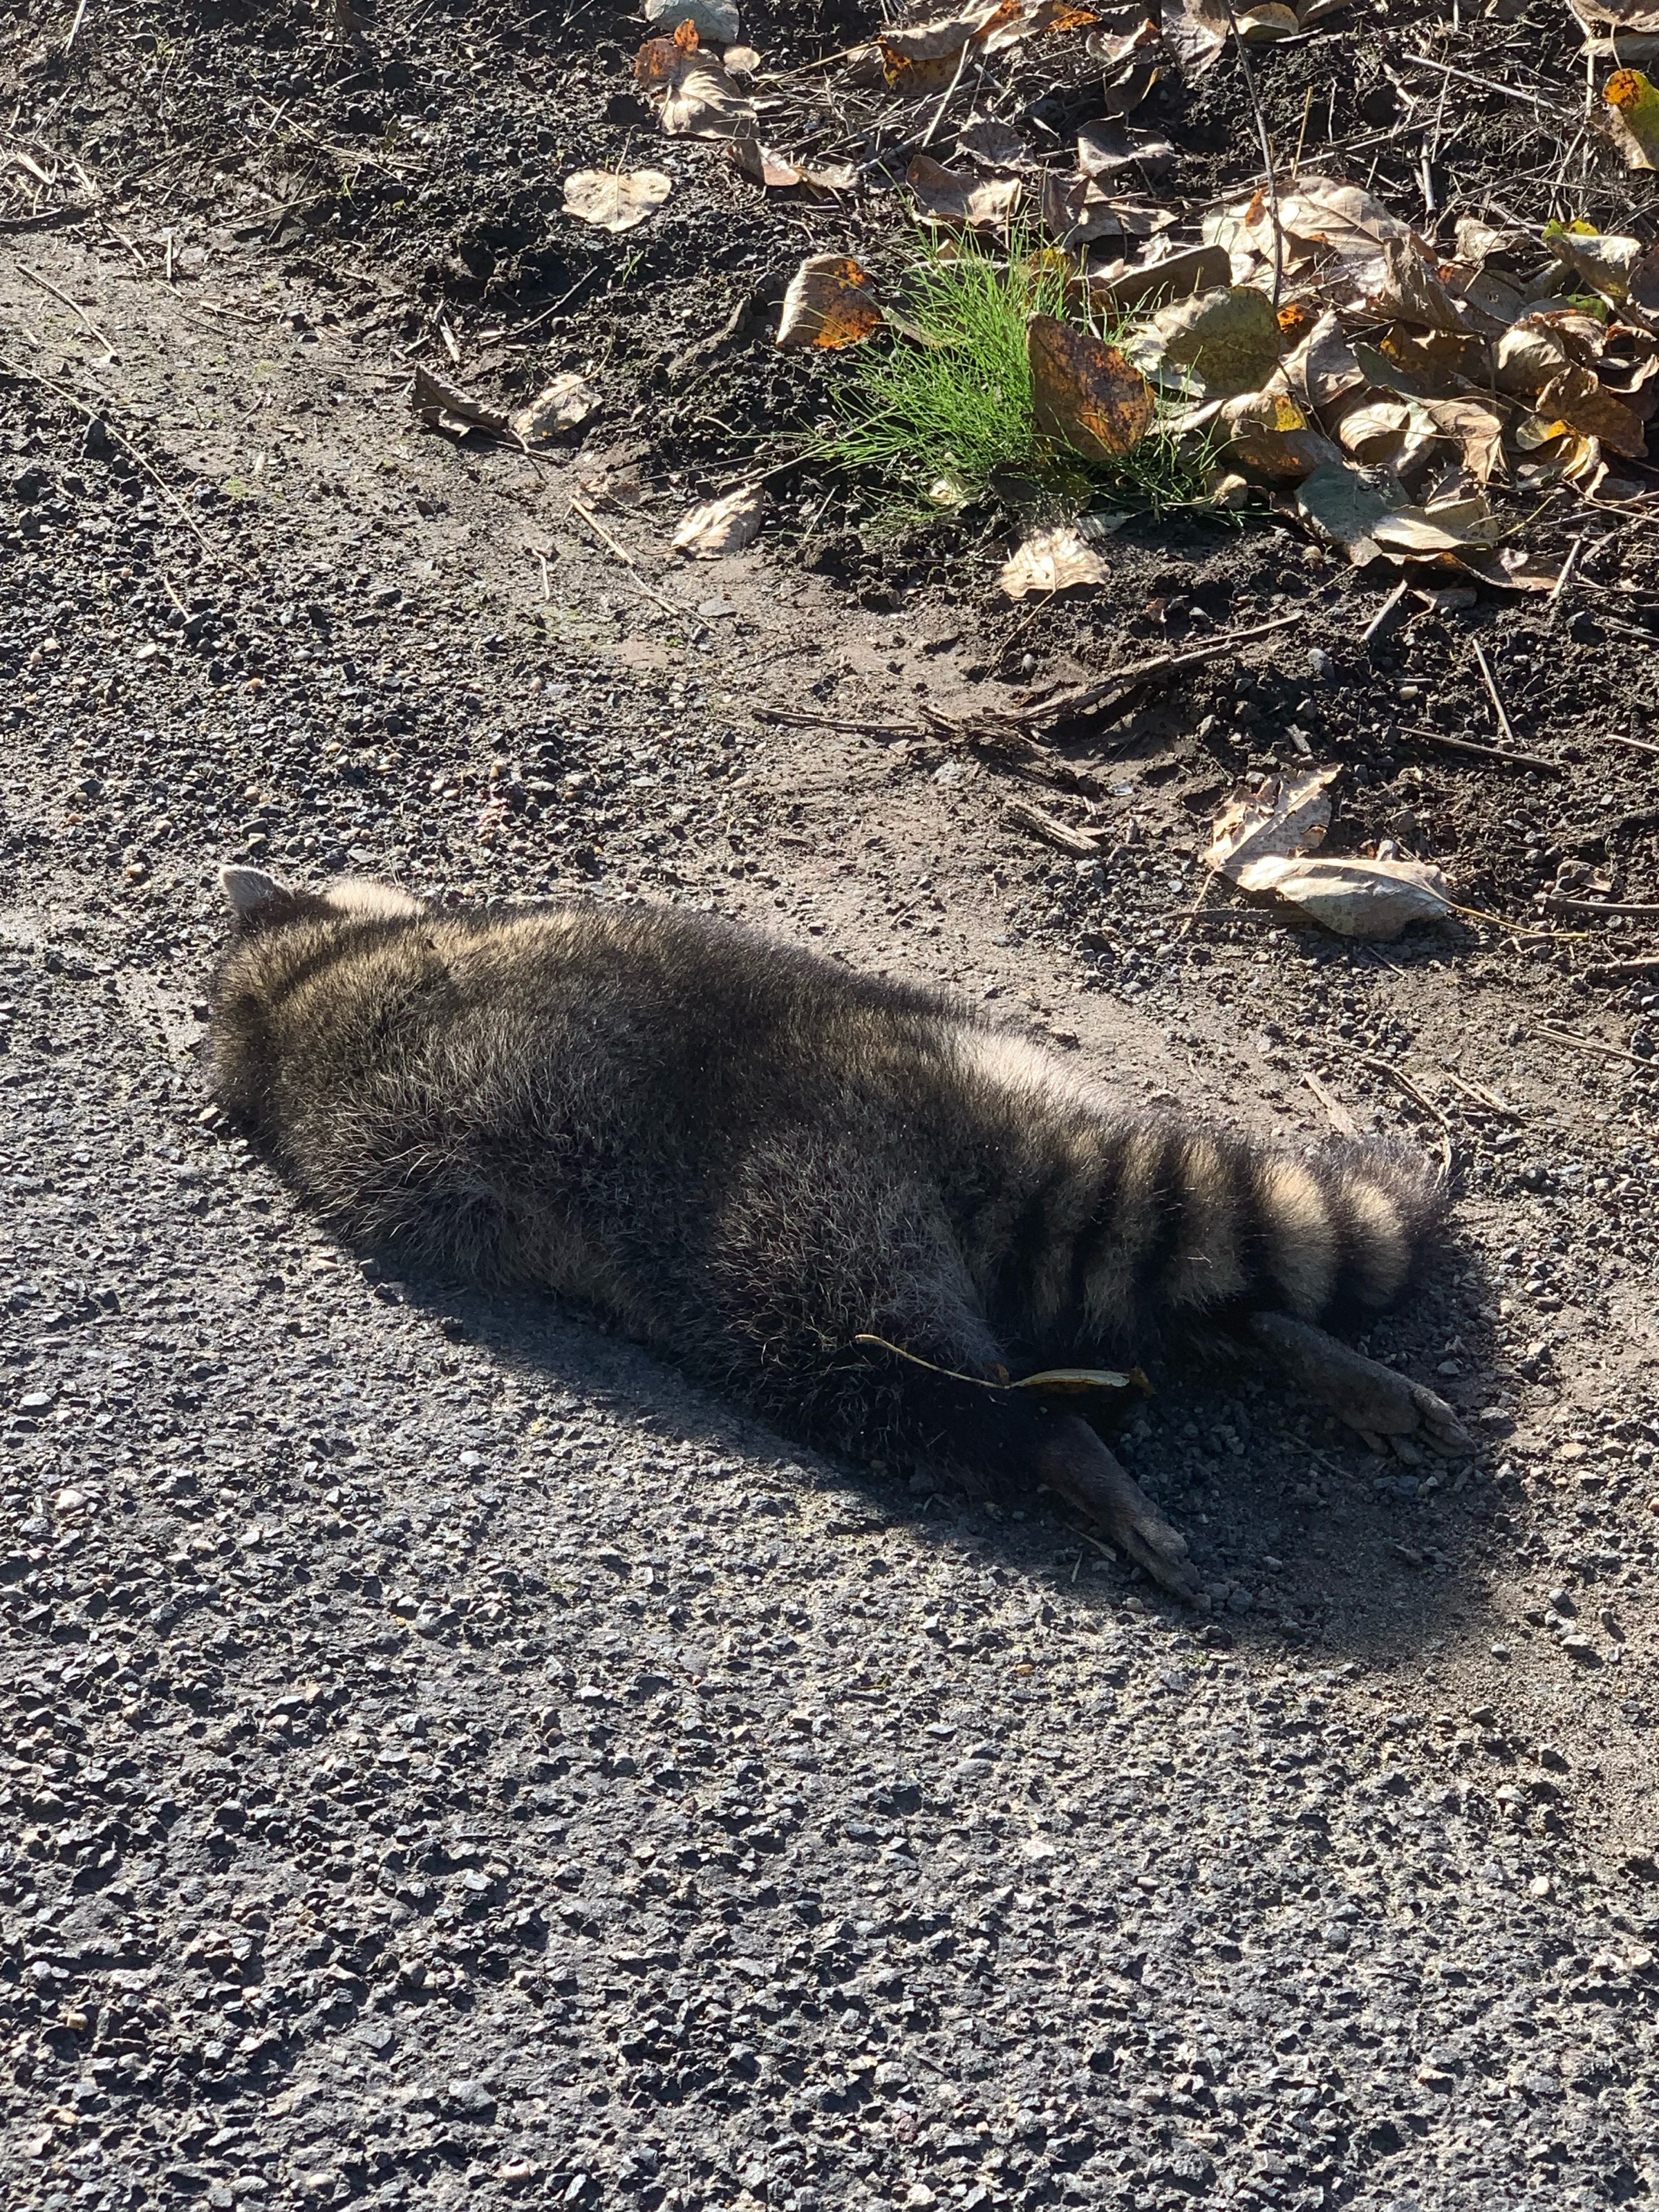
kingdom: Animalia
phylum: Chordata
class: Mammalia
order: Carnivora
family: Procyonidae
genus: Procyon
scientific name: Procyon lotor
